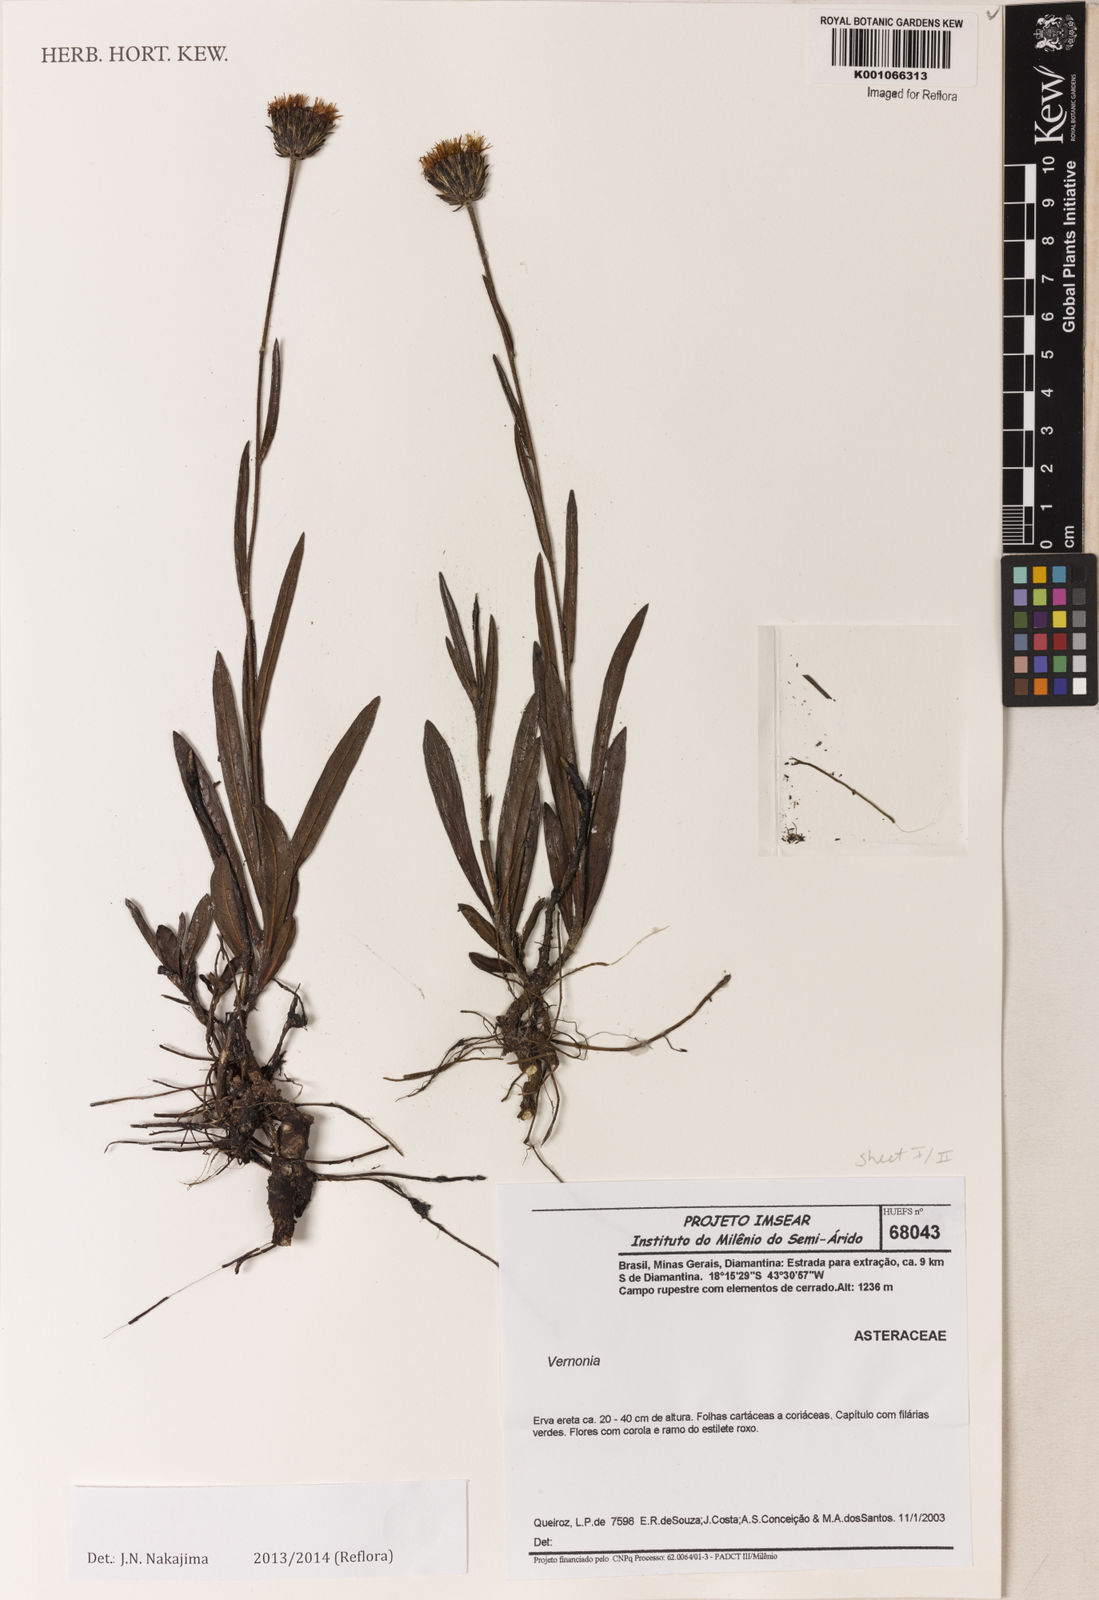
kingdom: Plantae
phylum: Tracheophyta
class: Magnoliopsida
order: Asterales
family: Asteraceae
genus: Vernonia
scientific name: Vernonia
